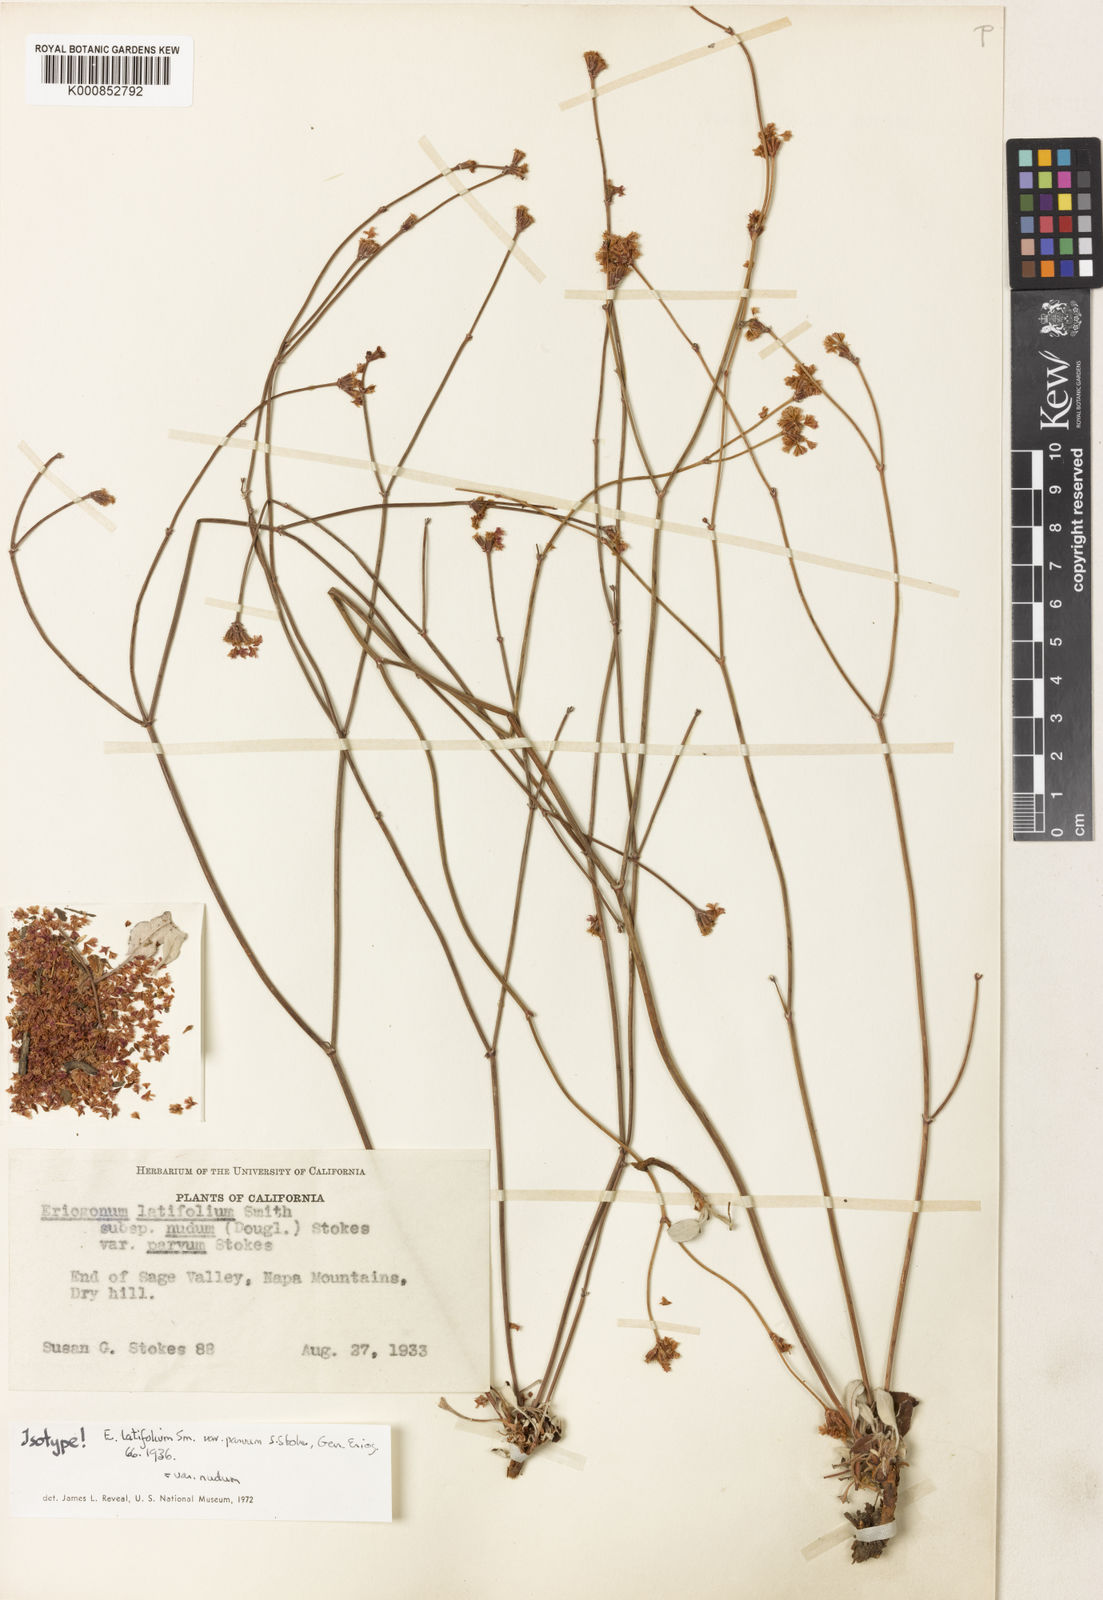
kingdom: Plantae
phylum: Tracheophyta
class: Magnoliopsida
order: Caryophyllales
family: Polygonaceae
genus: Eriogonum
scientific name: Eriogonum nudum
